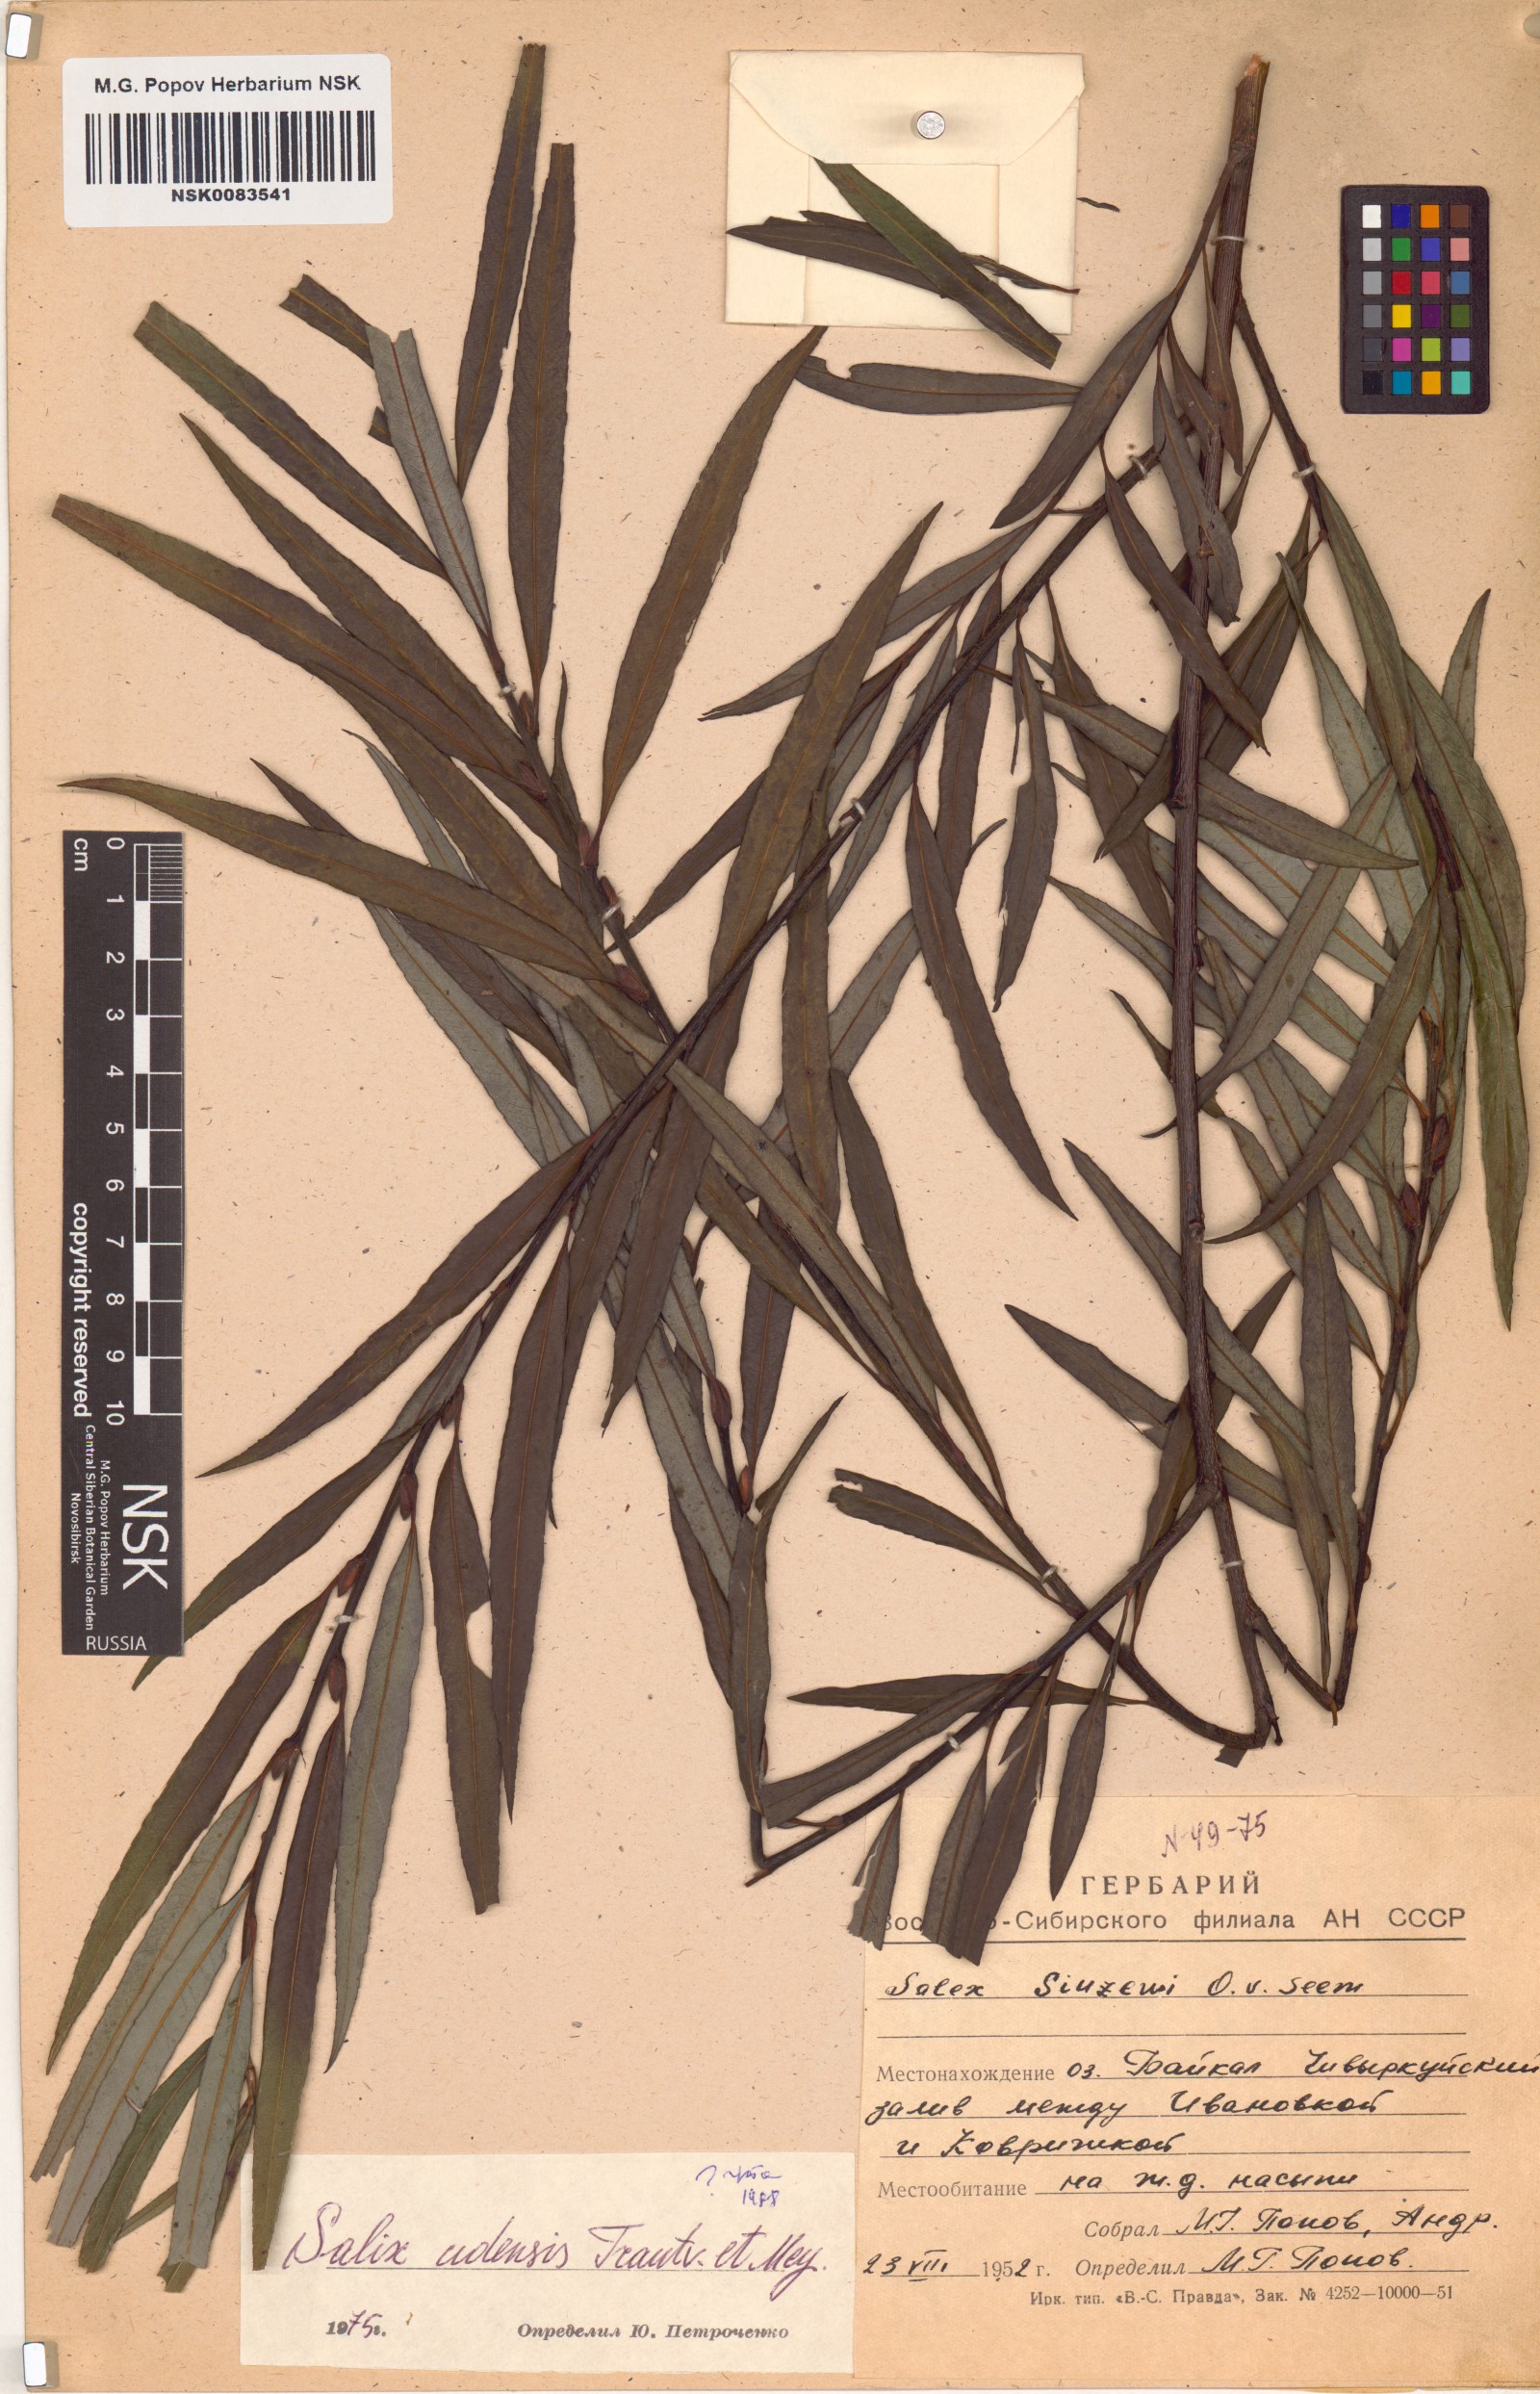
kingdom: Plantae
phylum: Tracheophyta
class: Magnoliopsida
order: Malpighiales
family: Salicaceae
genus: Salix
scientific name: Salix udensis
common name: Sachalin willow
